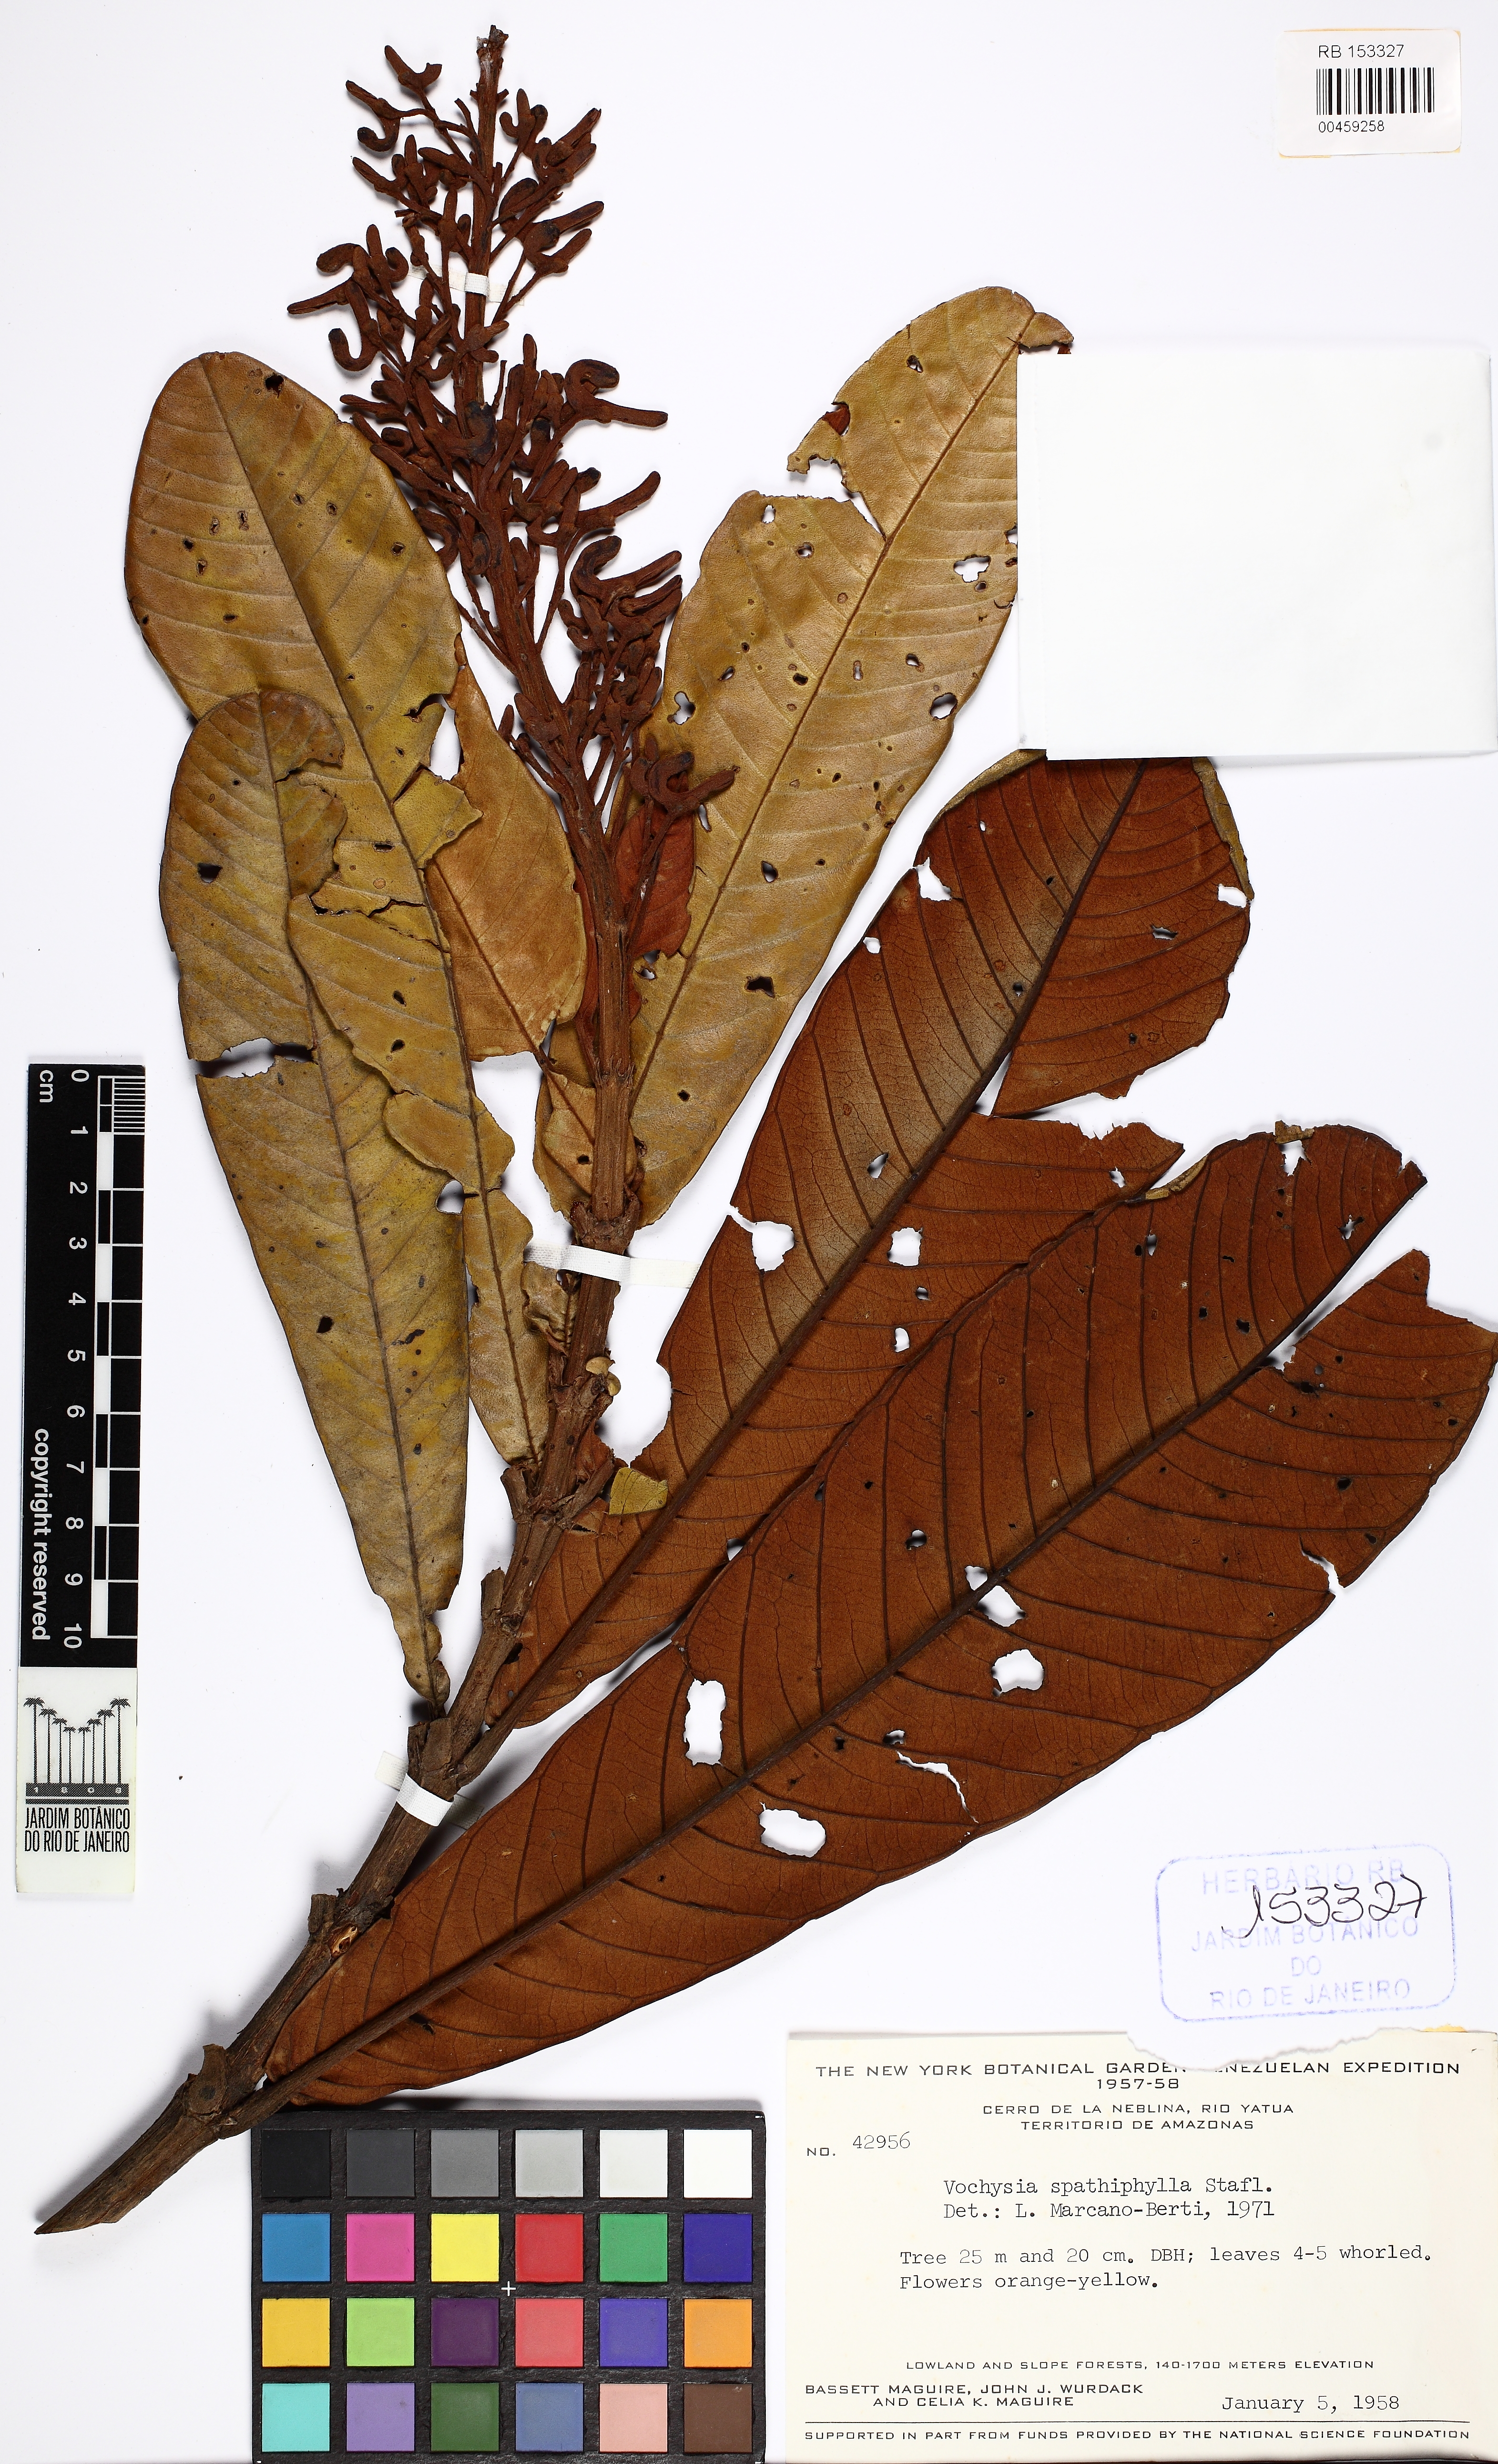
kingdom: Plantae
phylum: Tracheophyta
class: Magnoliopsida
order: Myrtales
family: Vochysiaceae
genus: Vochysia
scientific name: Vochysia spathiphylla
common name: Spathelikeleaf vochysia
